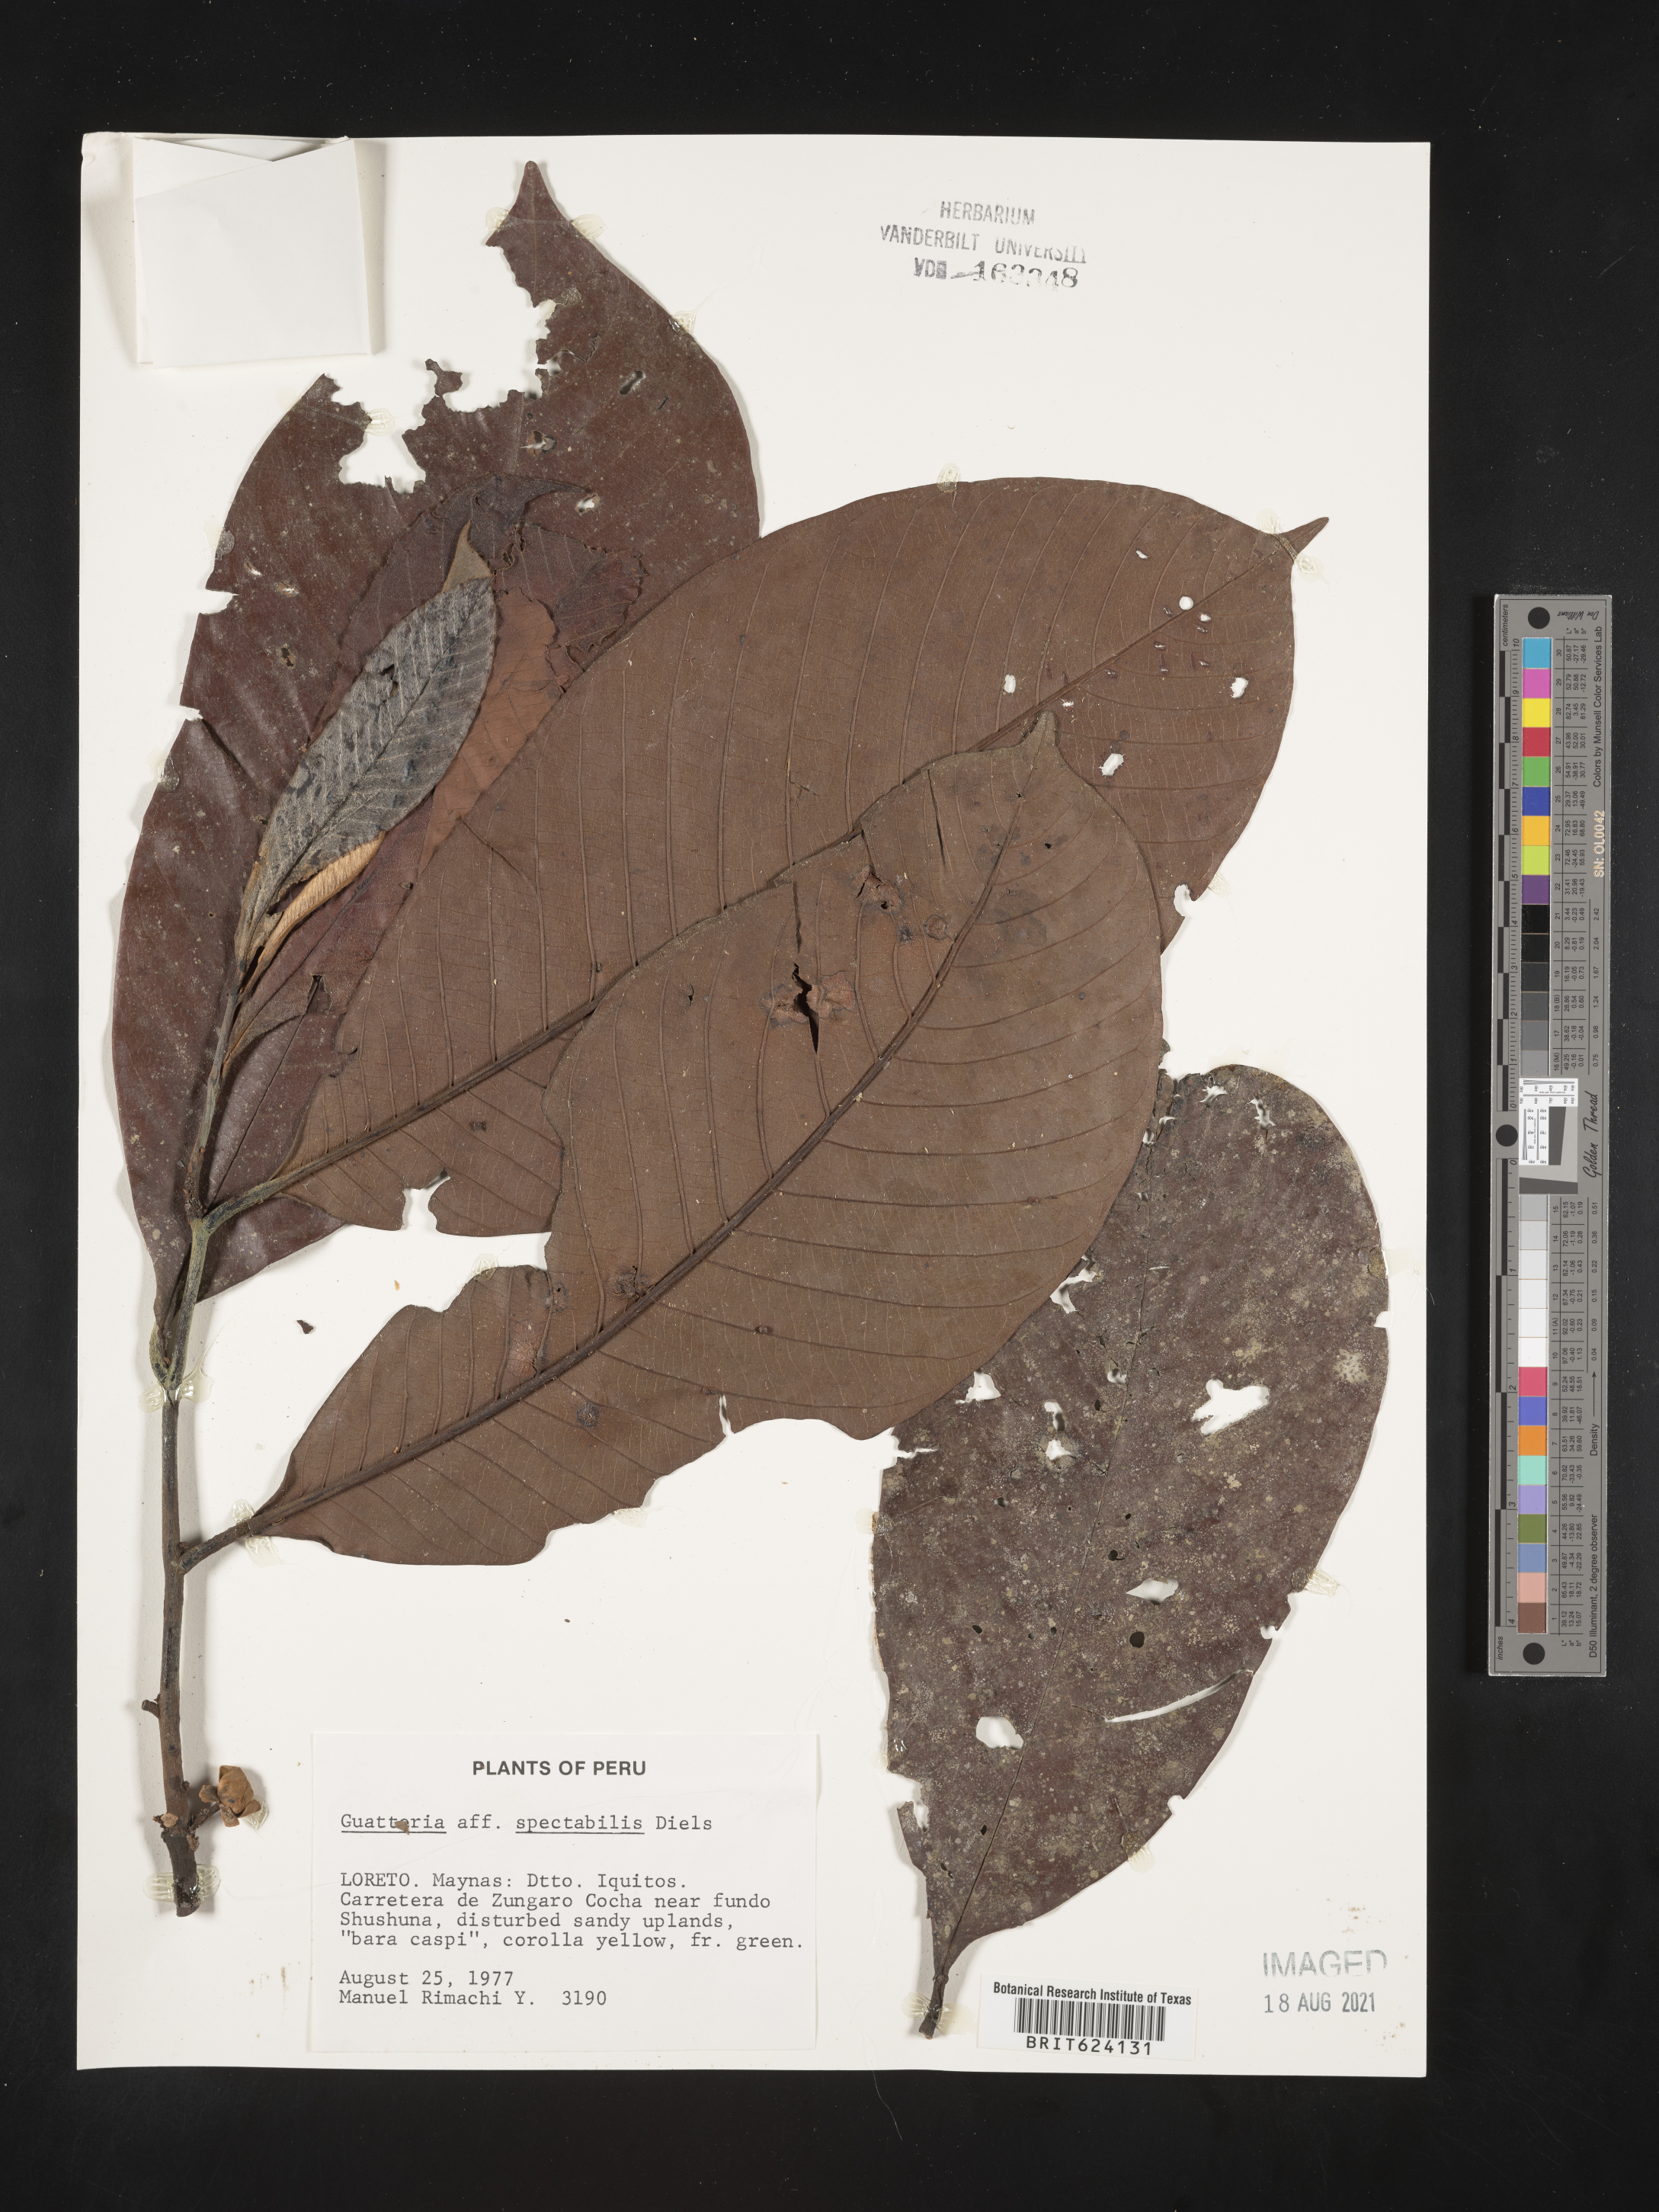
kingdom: Plantae
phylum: Tracheophyta
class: Magnoliopsida
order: Magnoliales
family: Annonaceae
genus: Guatteria
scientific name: Guatteria spectabilis
